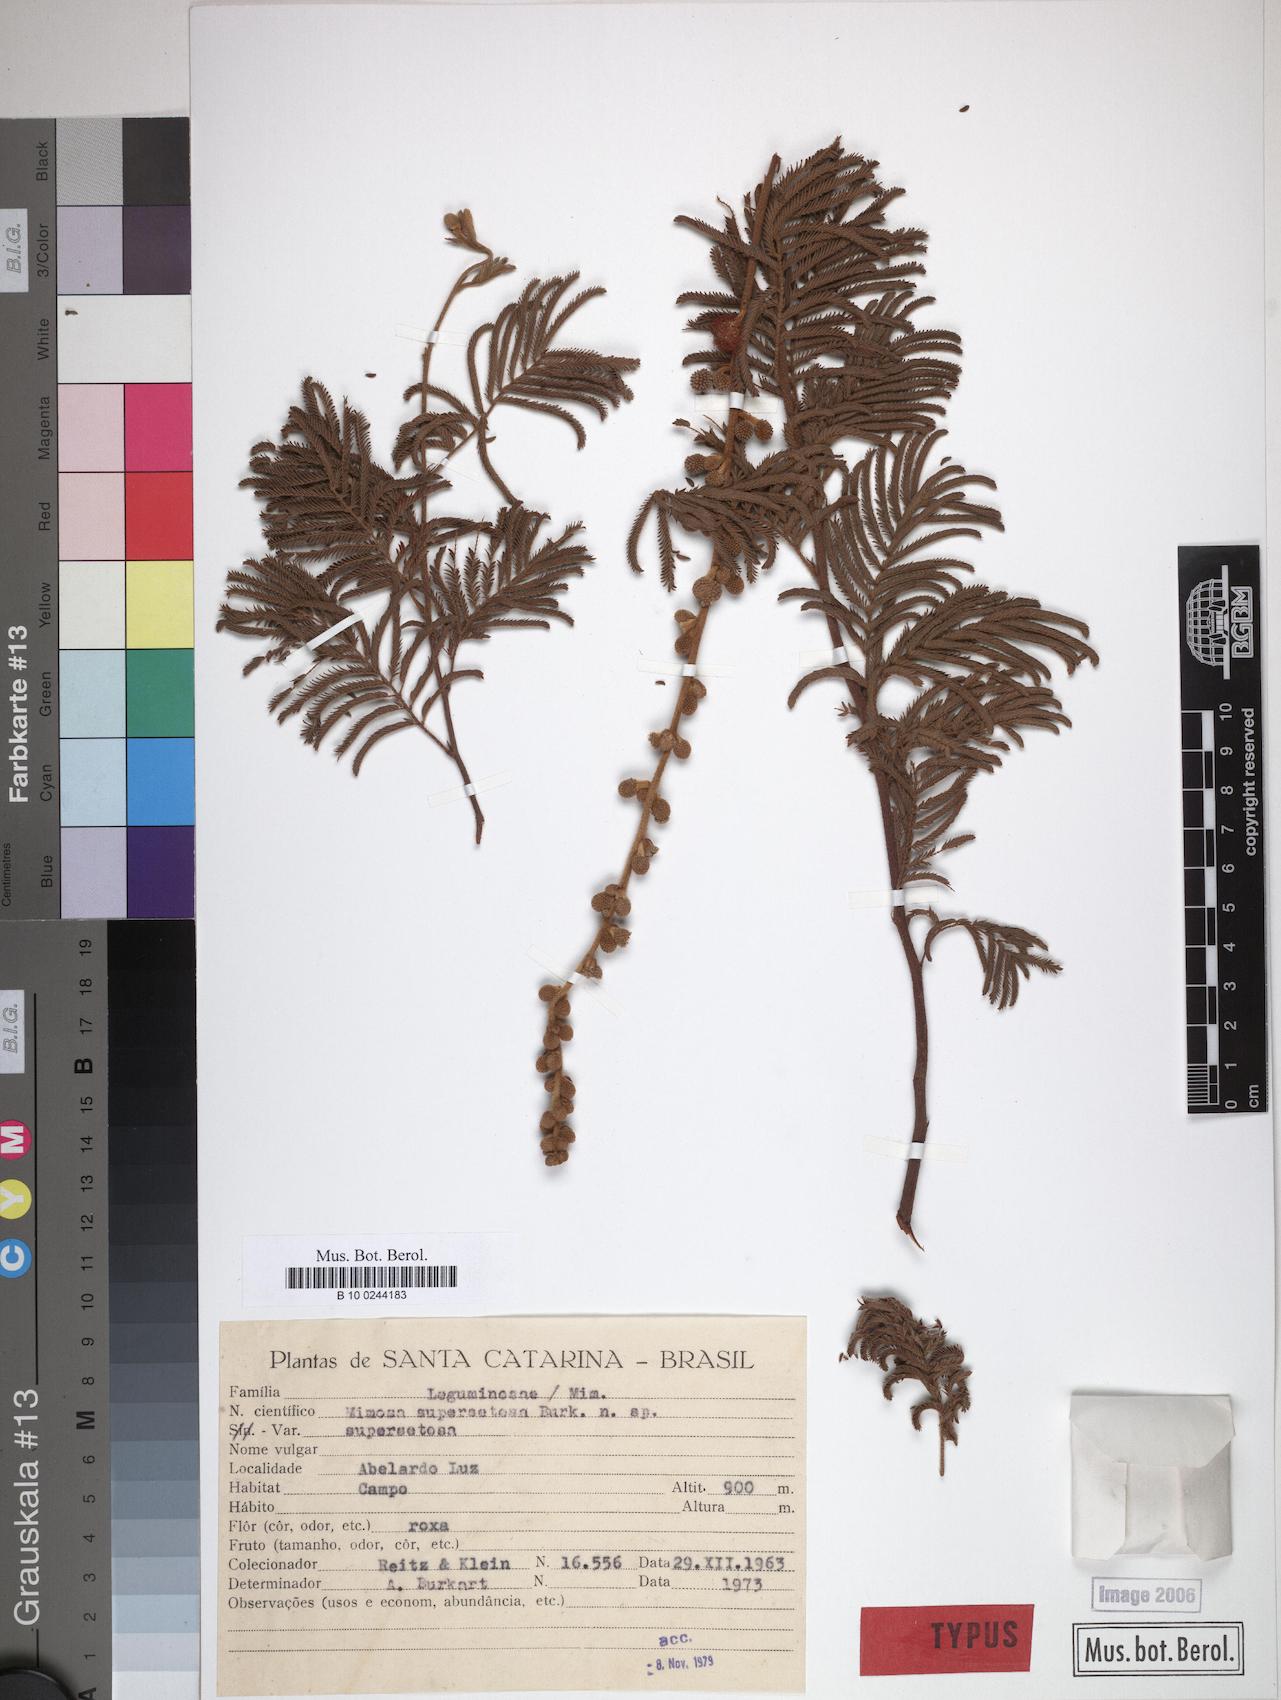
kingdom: Plantae
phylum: Tracheophyta
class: Magnoliopsida
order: Fabales
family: Fabaceae
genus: Mimosa
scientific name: Mimosa regnellii
